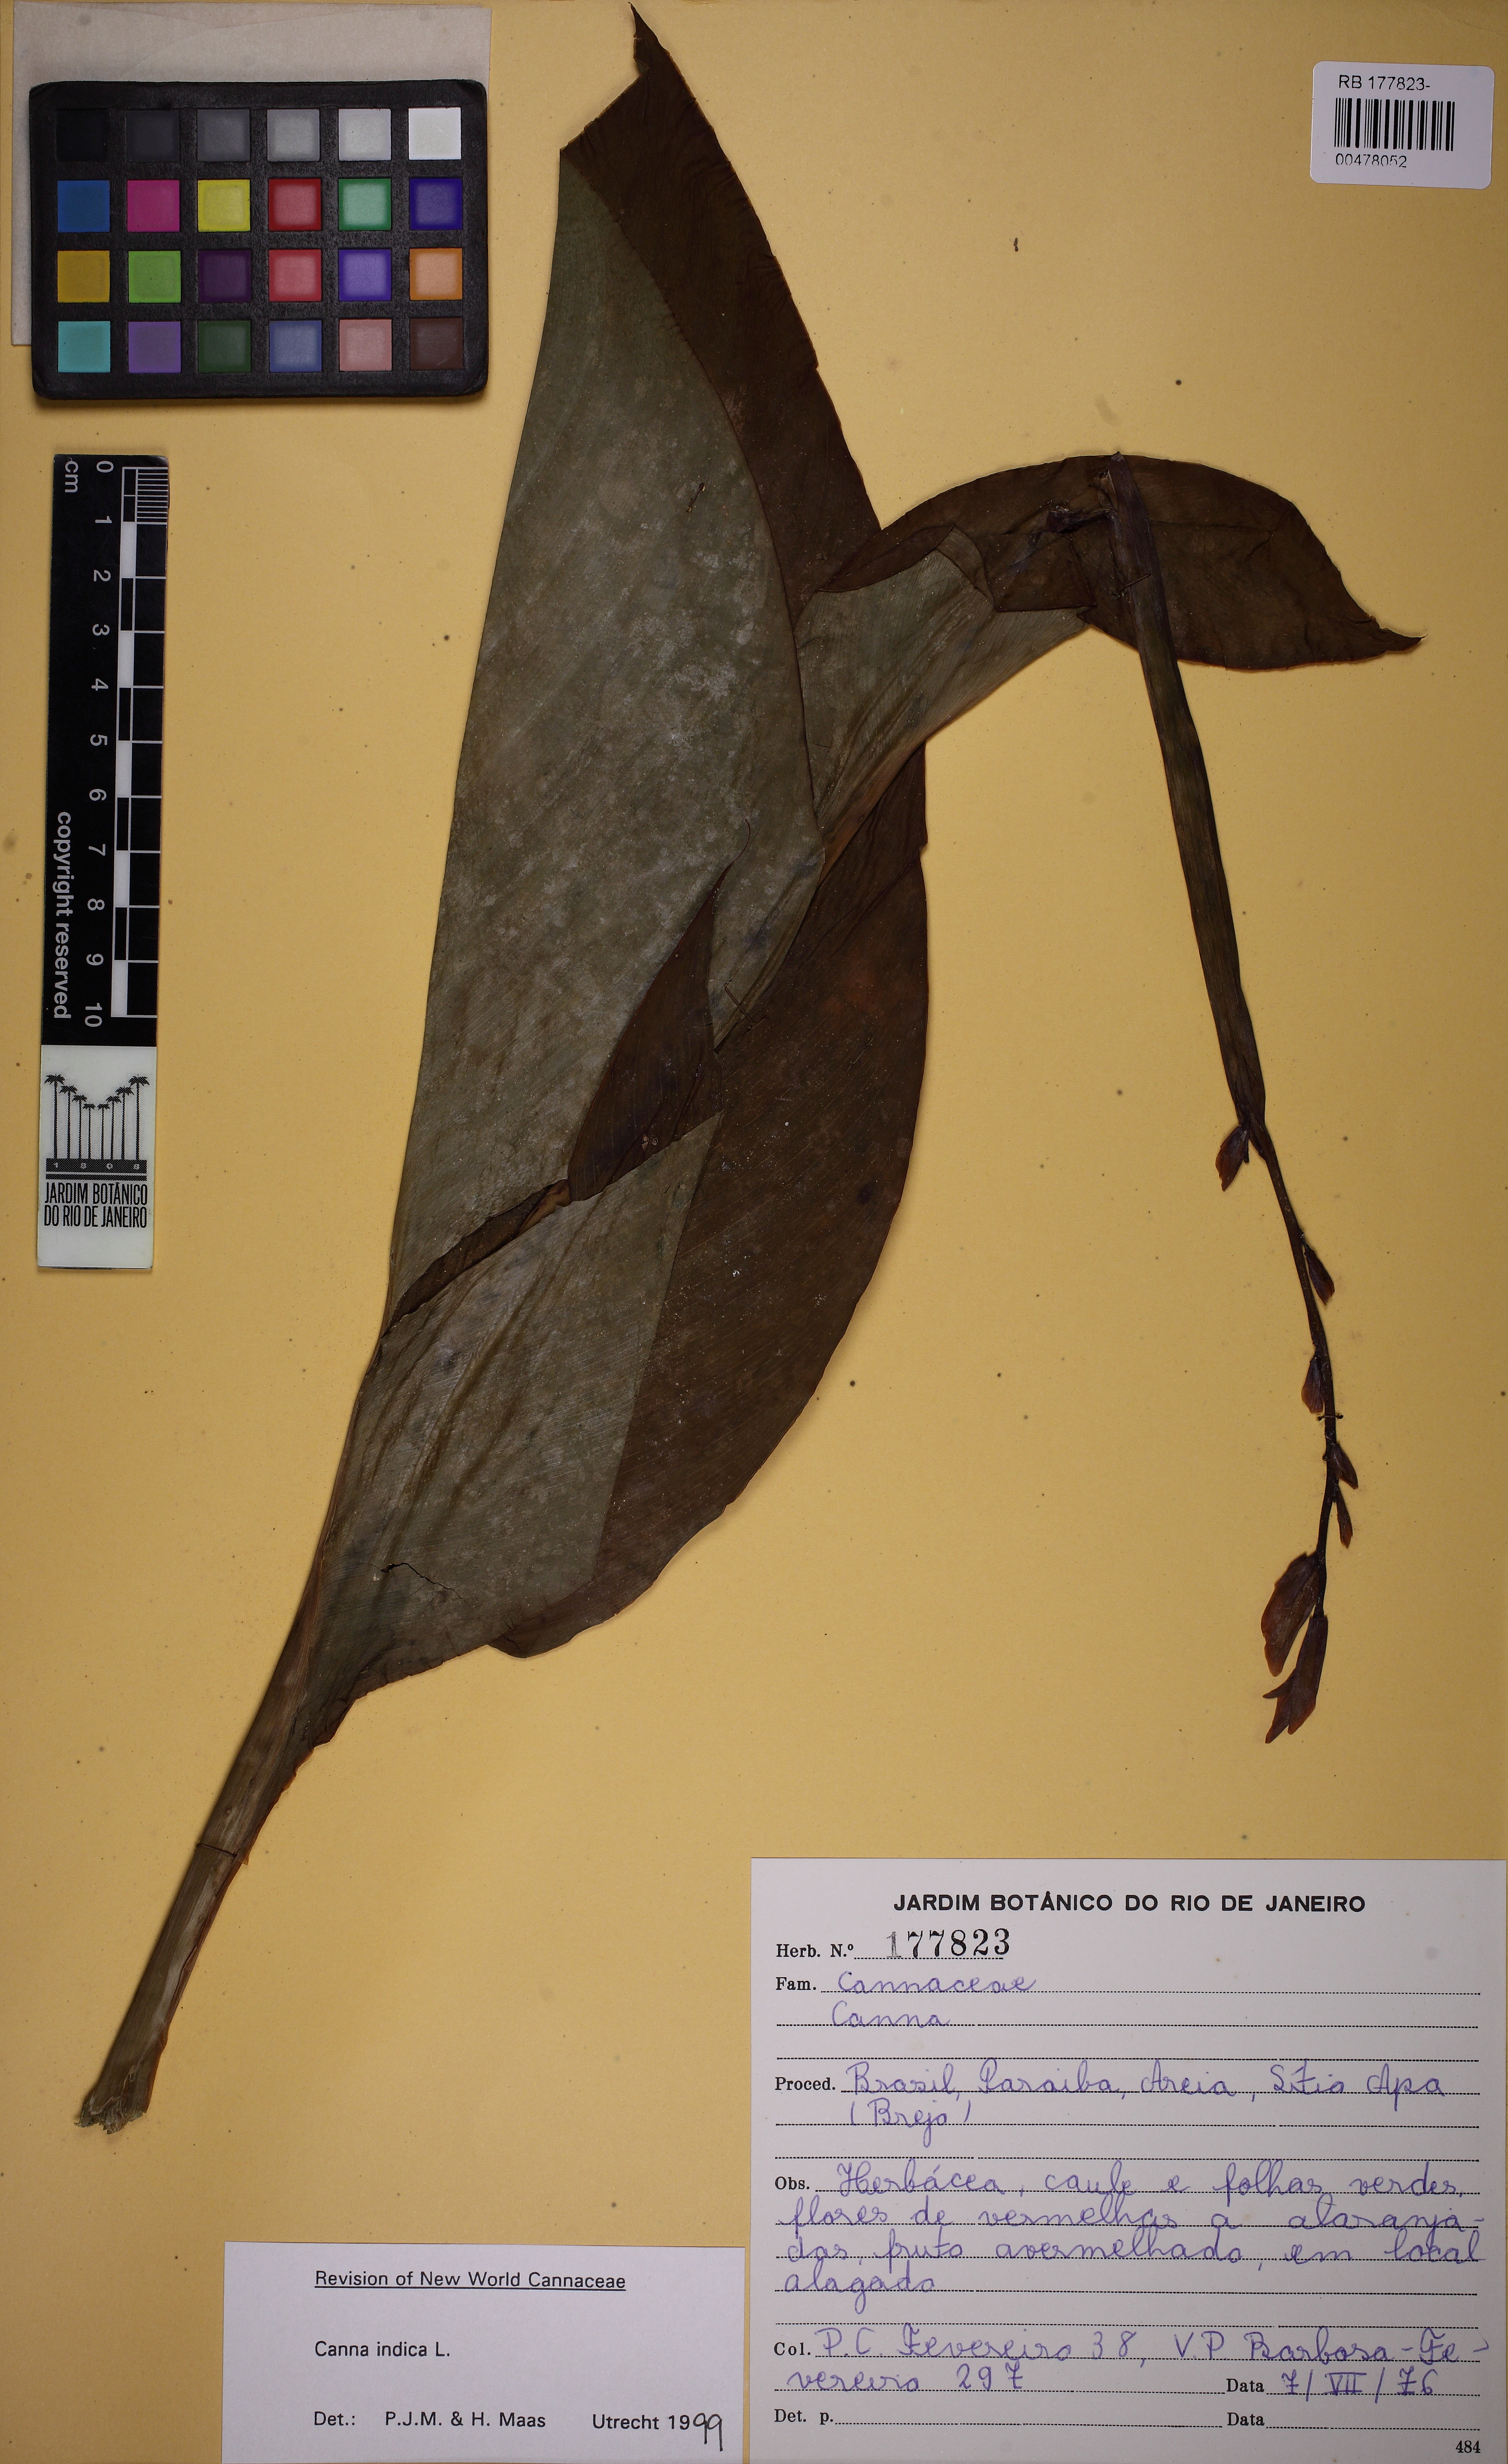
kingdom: Plantae
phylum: Tracheophyta
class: Liliopsida
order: Zingiberales
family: Cannaceae
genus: Canna
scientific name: Canna indica
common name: Indian shot
